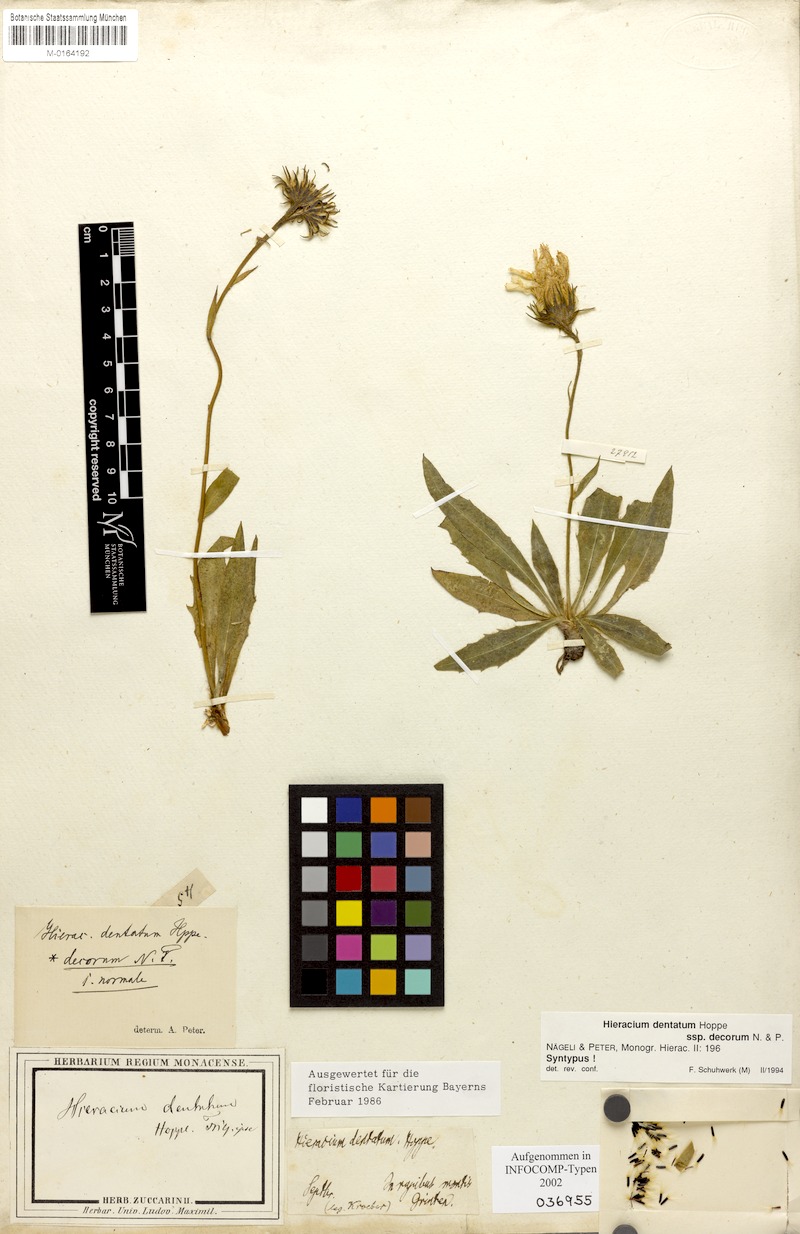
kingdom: Plantae
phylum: Tracheophyta
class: Magnoliopsida
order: Asterales
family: Asteraceae
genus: Hieracium
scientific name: Hieracium dentatum
